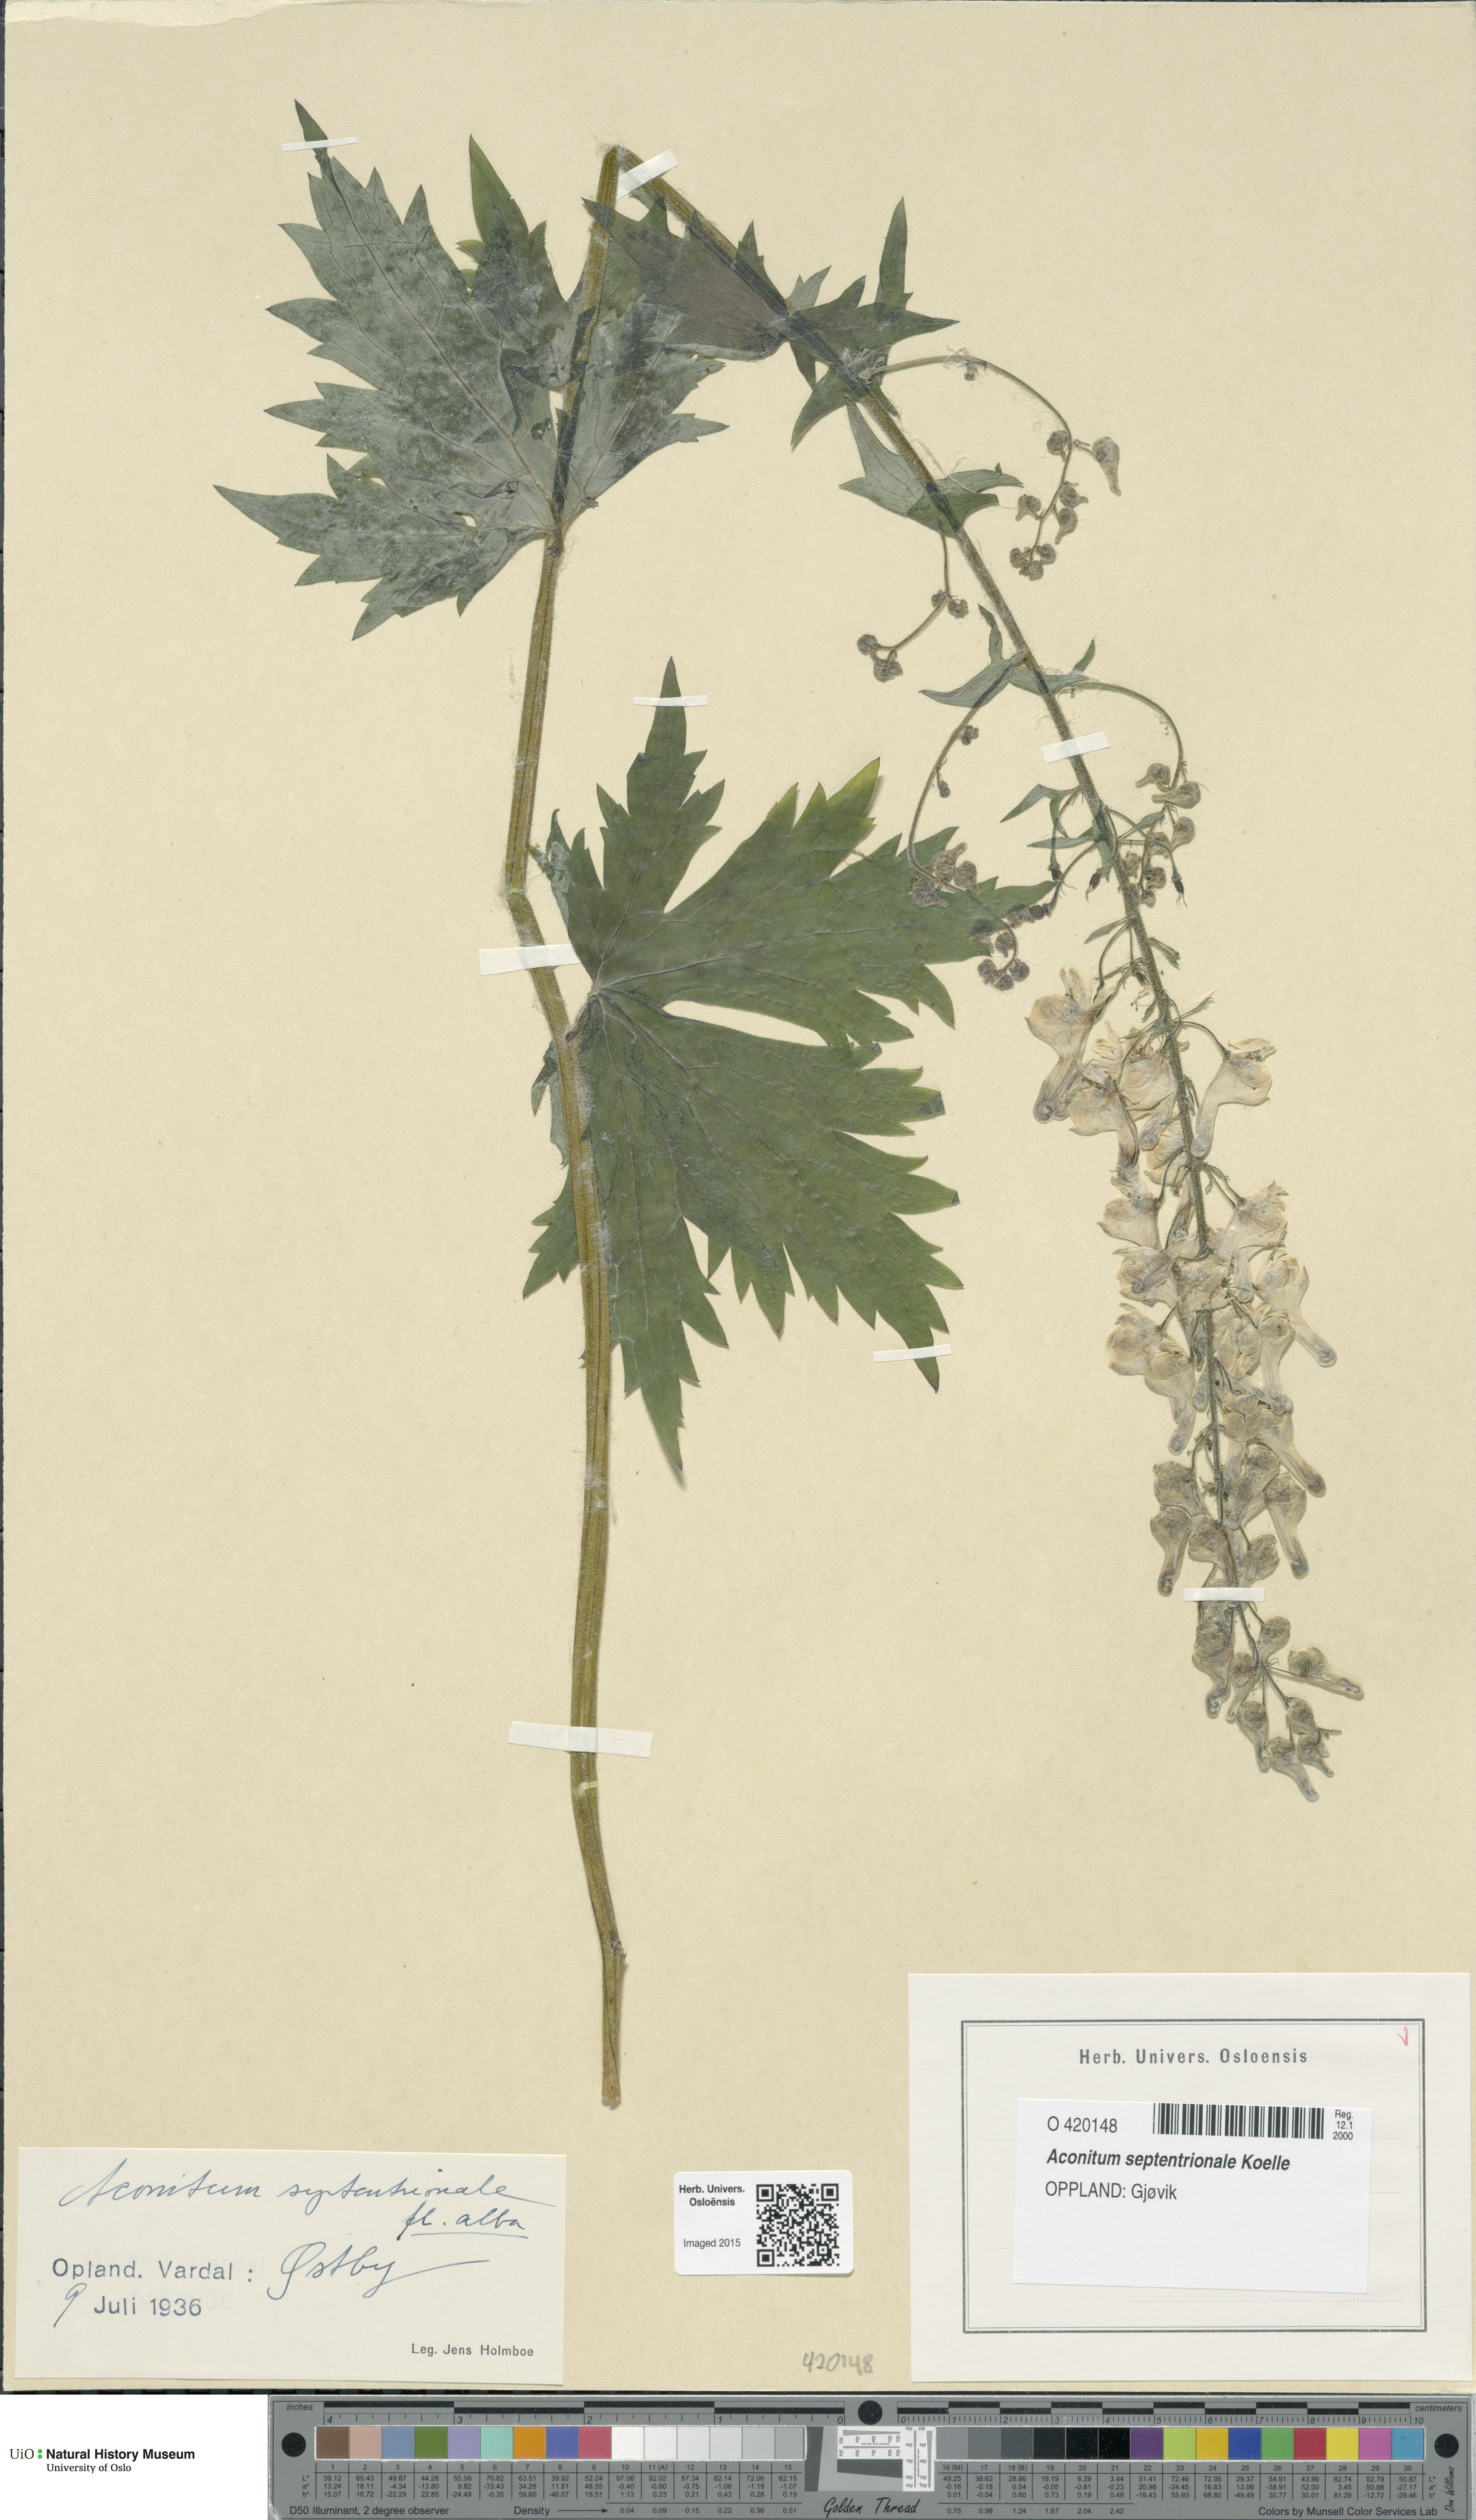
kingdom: Plantae
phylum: Tracheophyta
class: Magnoliopsida
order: Ranunculales
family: Ranunculaceae
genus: Aconitum
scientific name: Aconitum septentrionale
